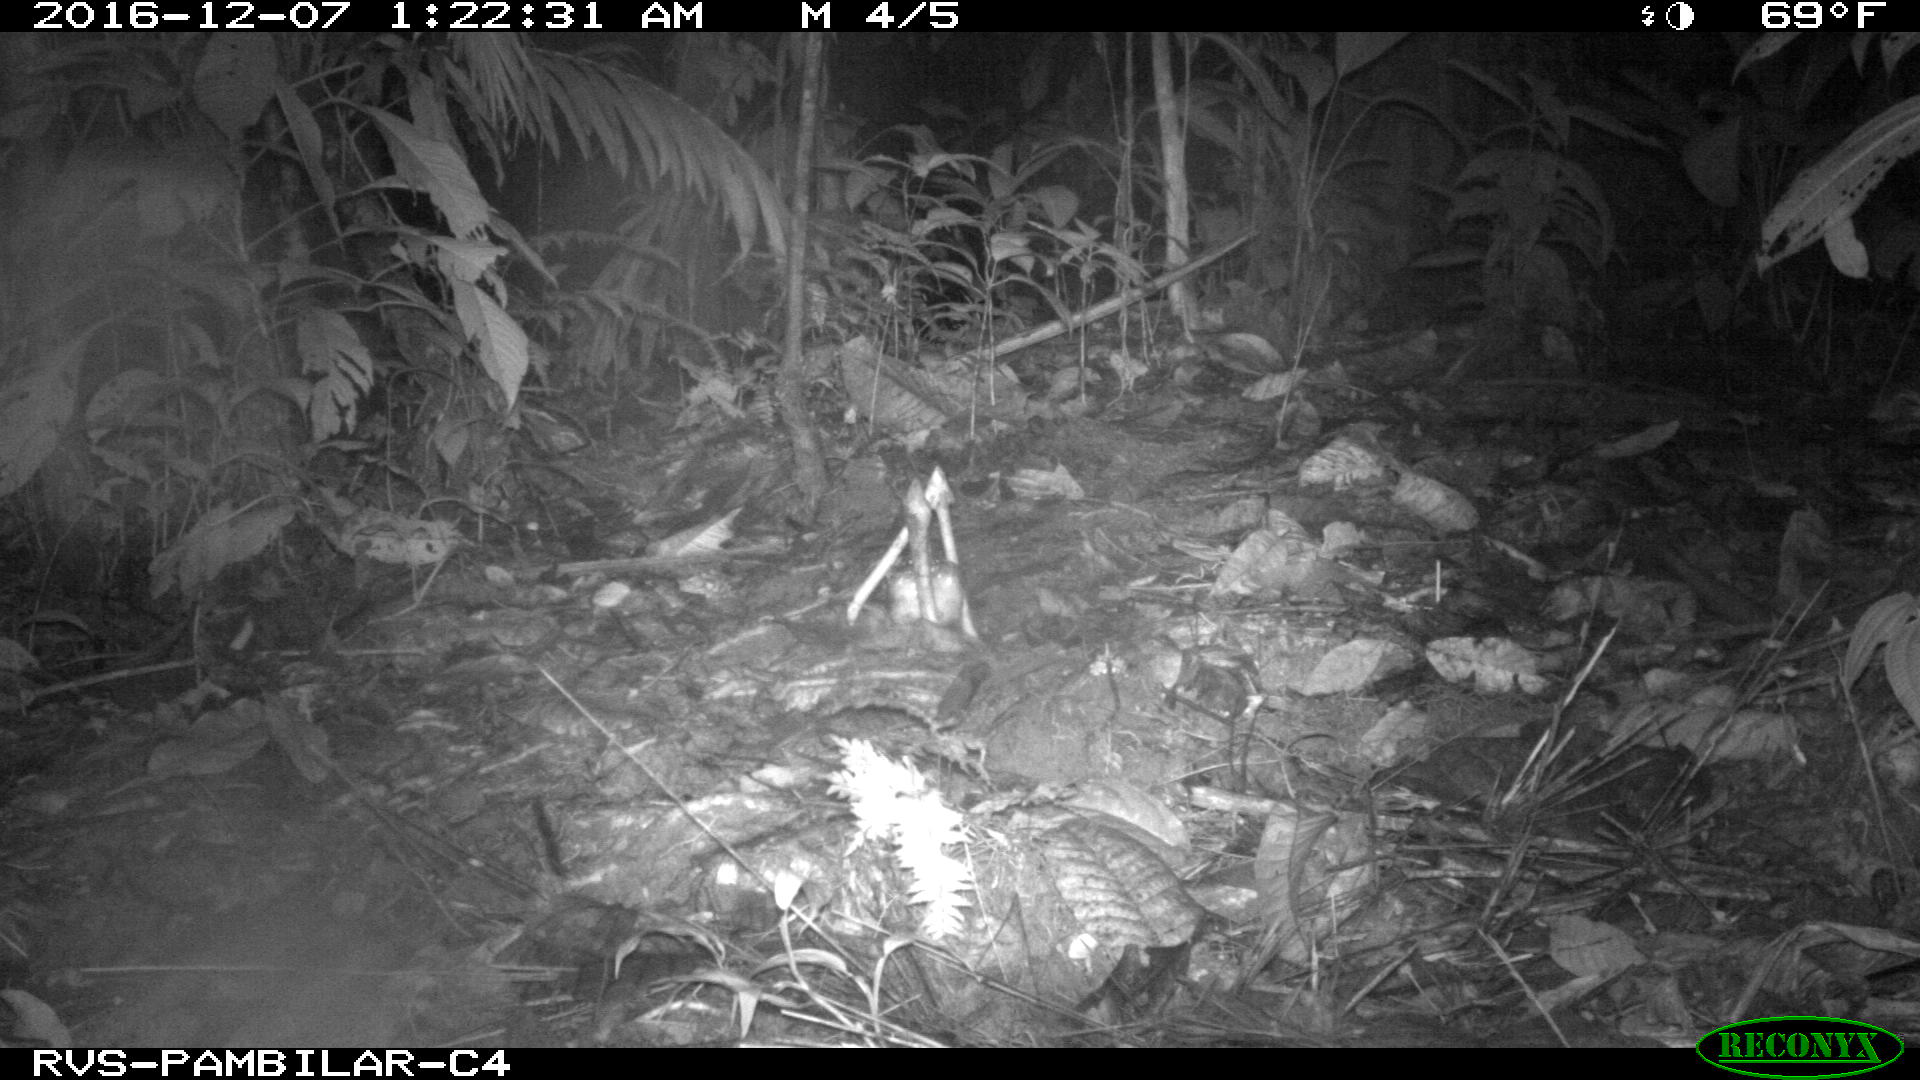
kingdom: Animalia
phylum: Chordata
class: Mammalia
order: Cingulata
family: Dasypodidae
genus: Dasypus
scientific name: Dasypus novemcinctus
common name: Nine-banded armadillo
